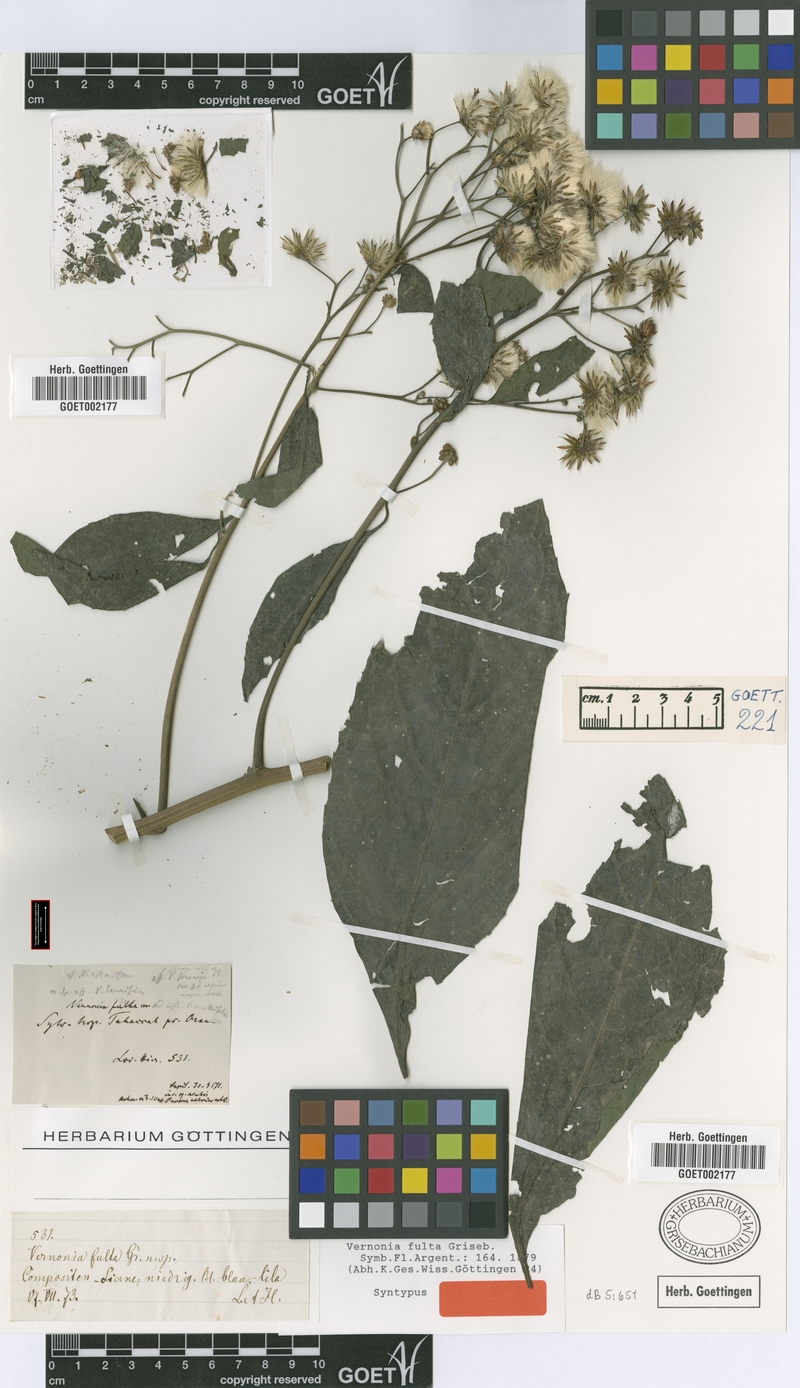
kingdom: Plantae
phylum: Tracheophyta
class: Magnoliopsida
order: Asterales
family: Asteraceae
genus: Quechualia
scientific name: Quechualia fulta
